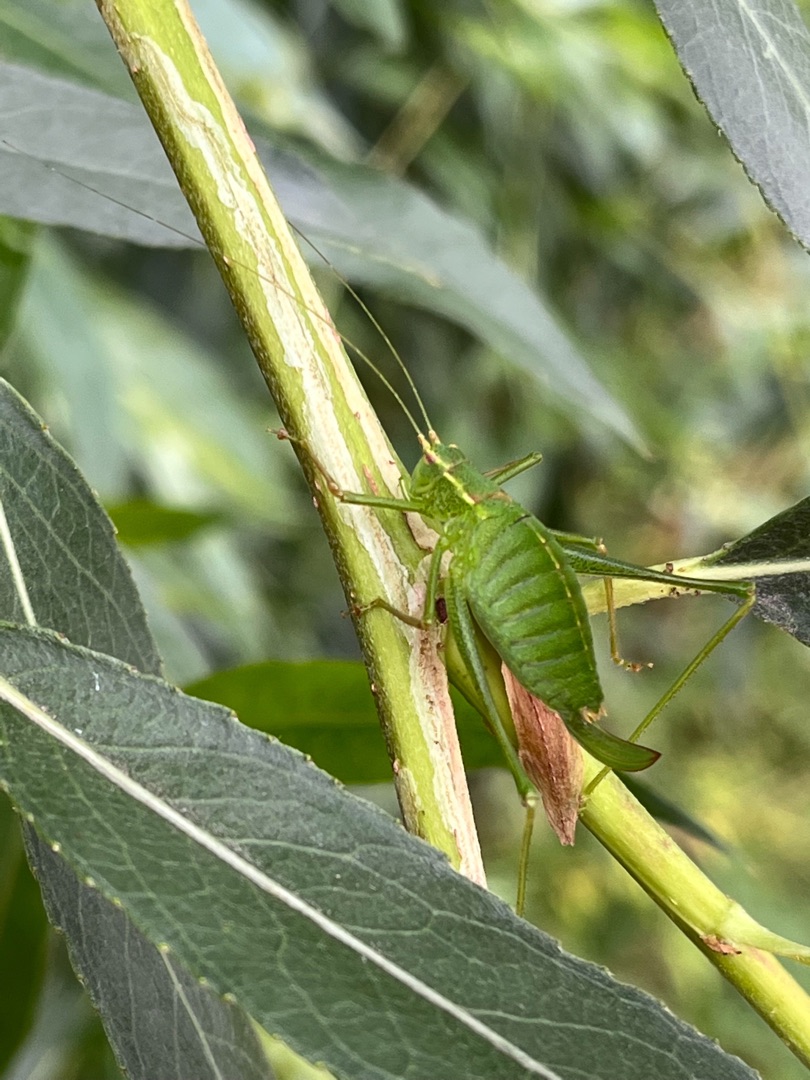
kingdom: Animalia
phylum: Arthropoda
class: Insecta
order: Orthoptera
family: Tettigoniidae
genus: Leptophyes
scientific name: Leptophyes punctatissima
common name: Krumknivgræshoppe
